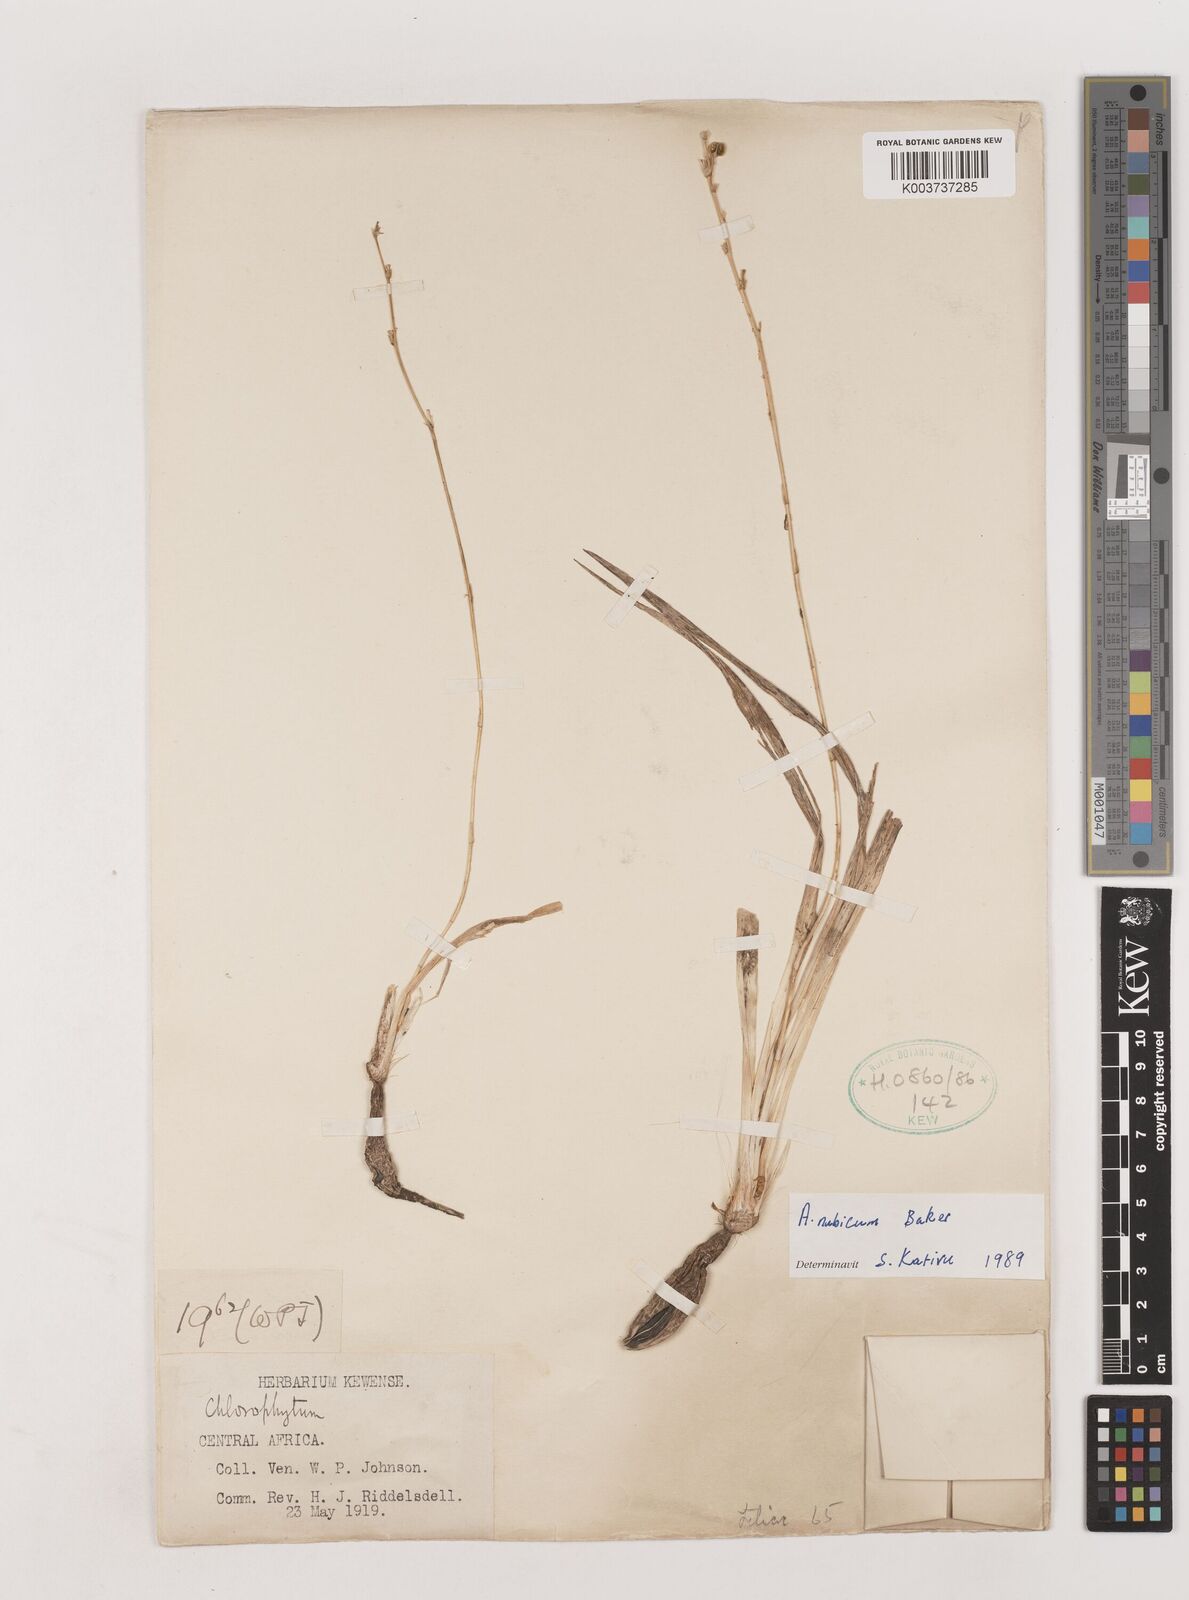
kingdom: Plantae
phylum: Tracheophyta
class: Liliopsida
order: Asparagales
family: Asparagaceae
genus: Chlorophytum
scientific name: Chlorophytum nubicum
